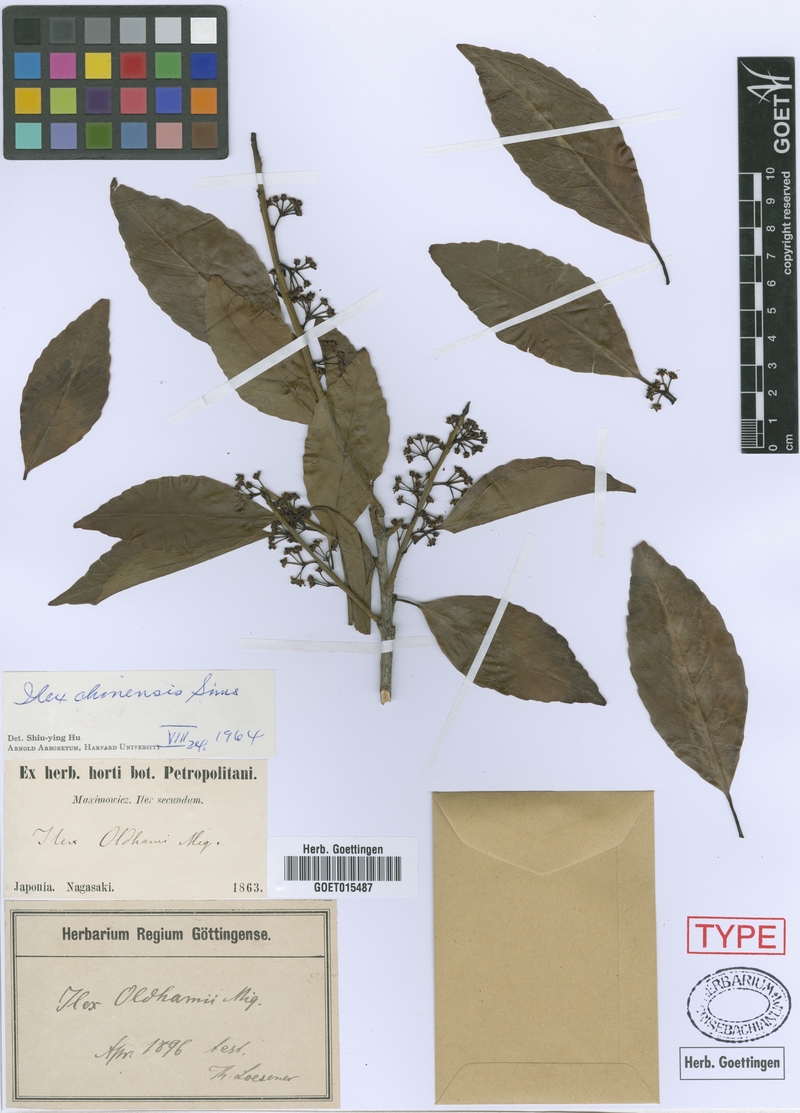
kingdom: Plantae
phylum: Tracheophyta
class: Magnoliopsida
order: Aquifoliales
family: Aquifoliaceae
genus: Ilex
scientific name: Ilex chinensis
